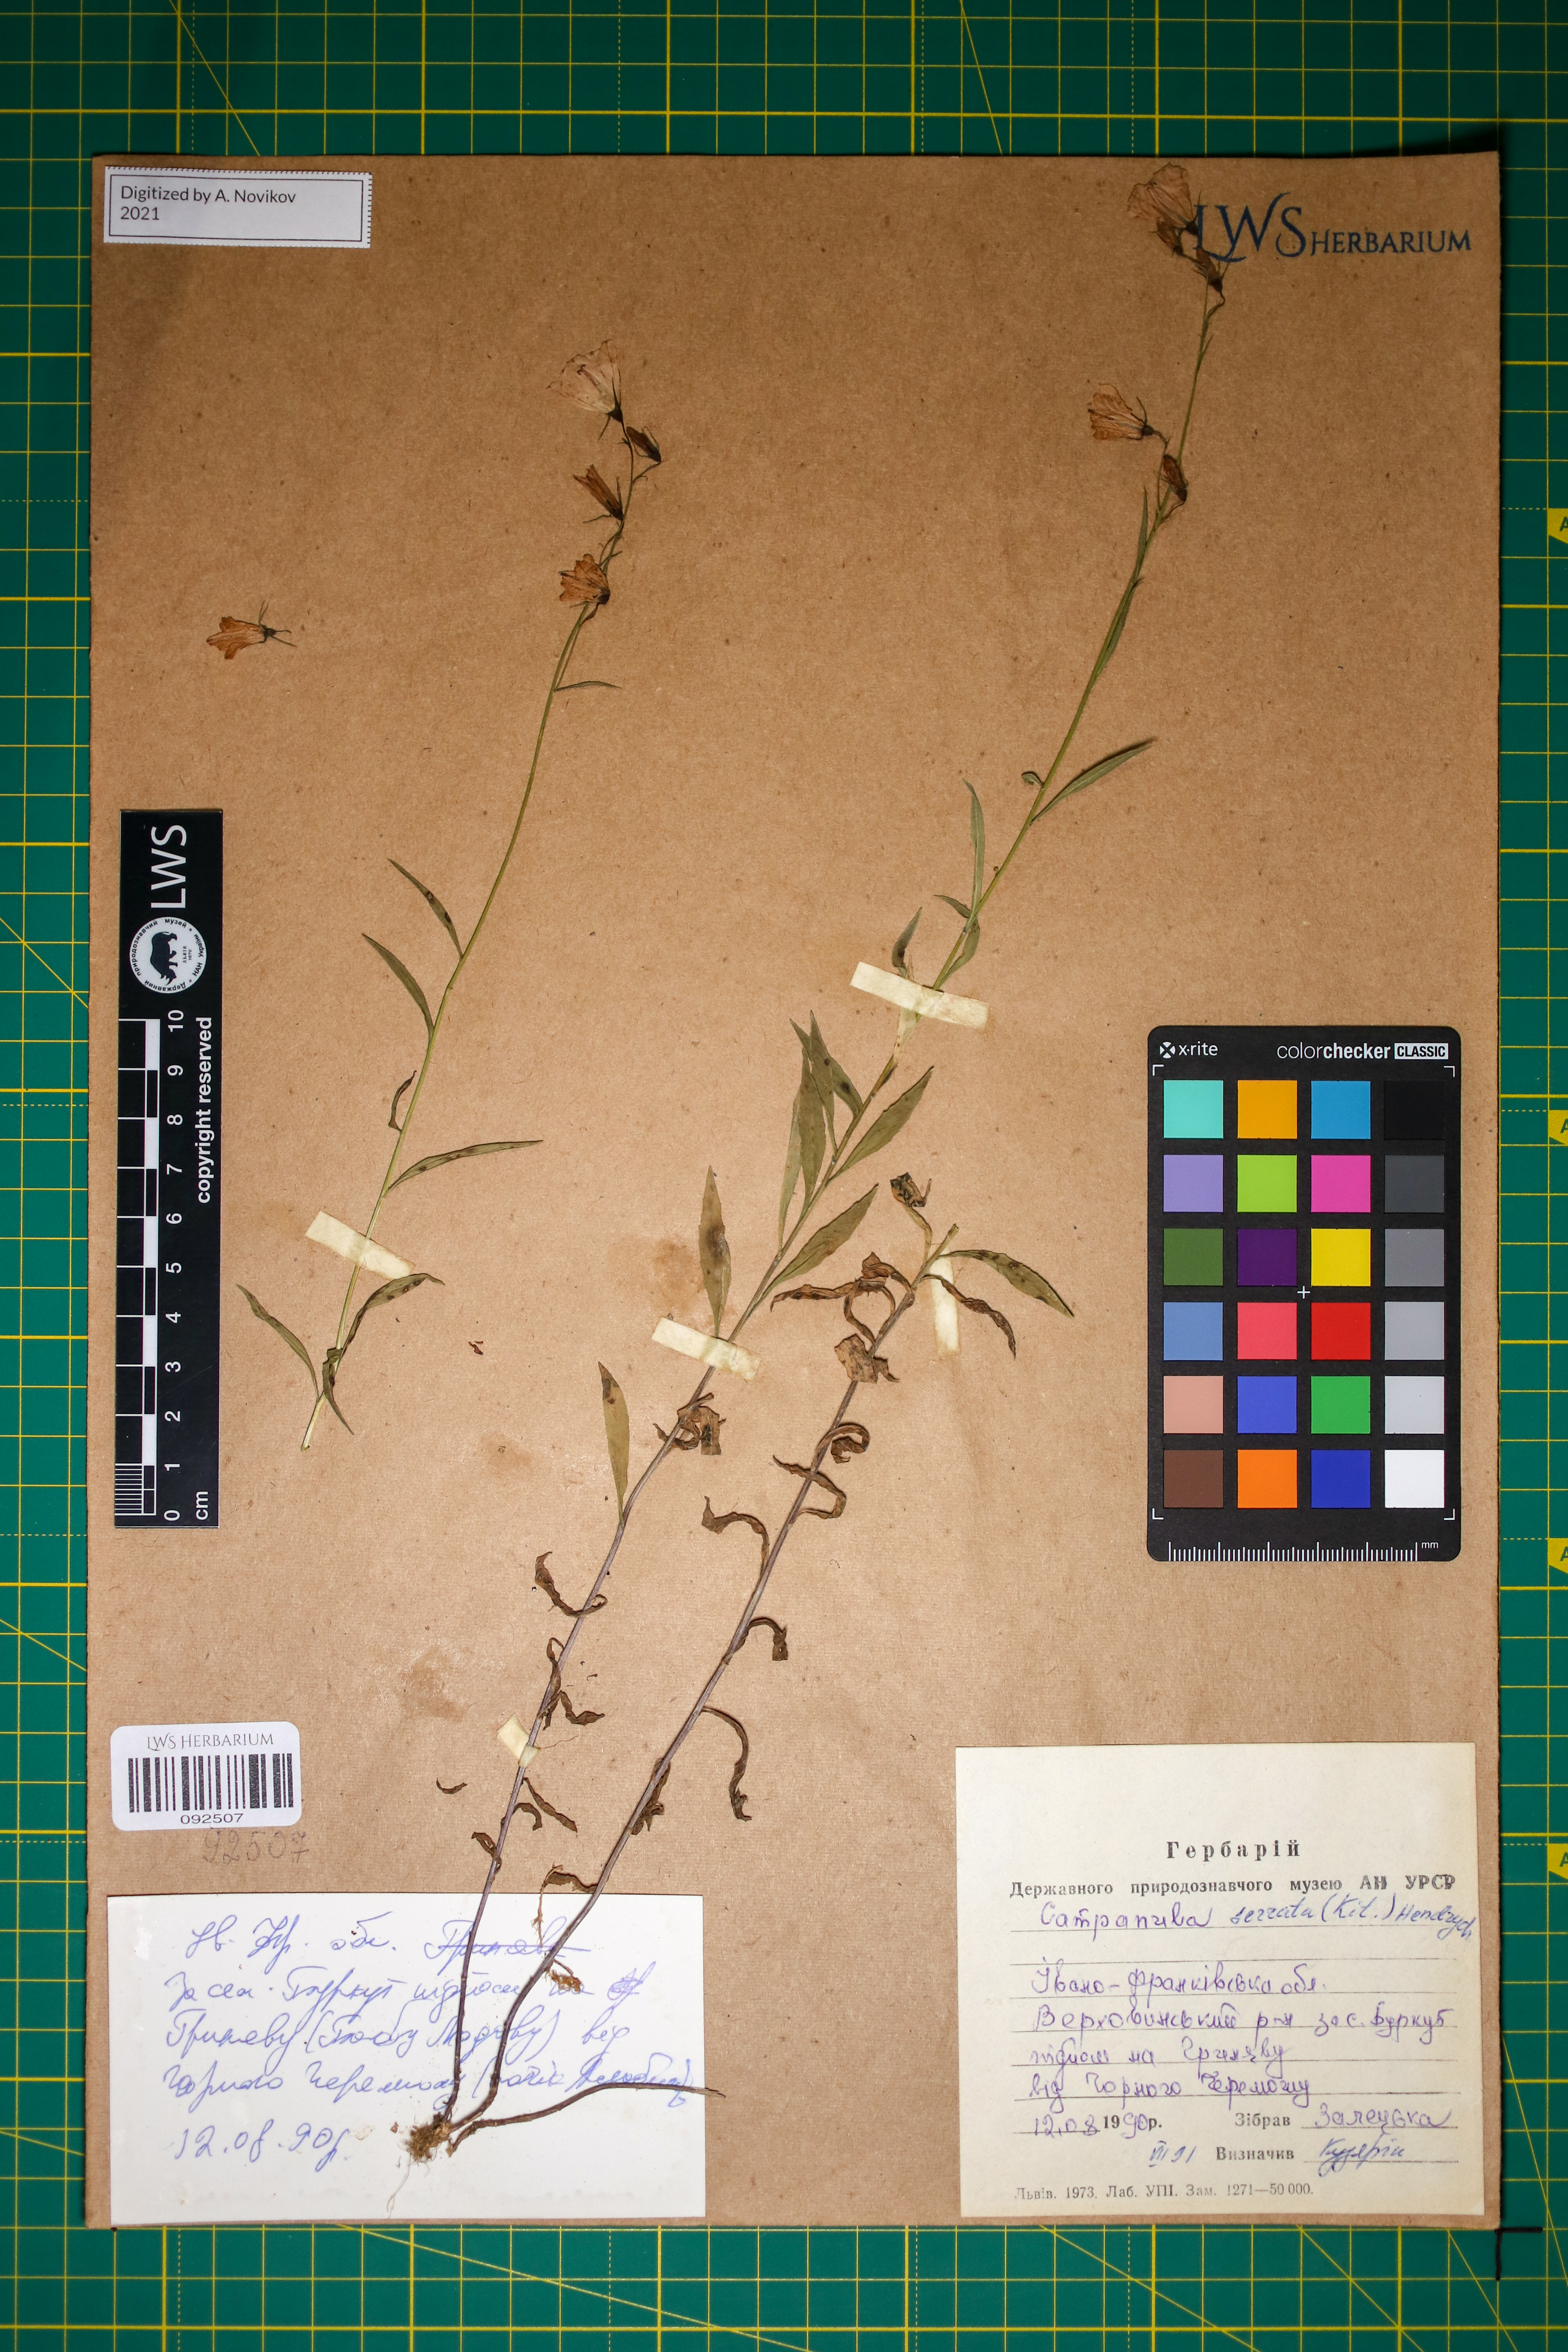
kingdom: Plantae
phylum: Tracheophyta
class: Magnoliopsida
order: Asterales
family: Campanulaceae
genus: Campanula
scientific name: Campanula serrata
